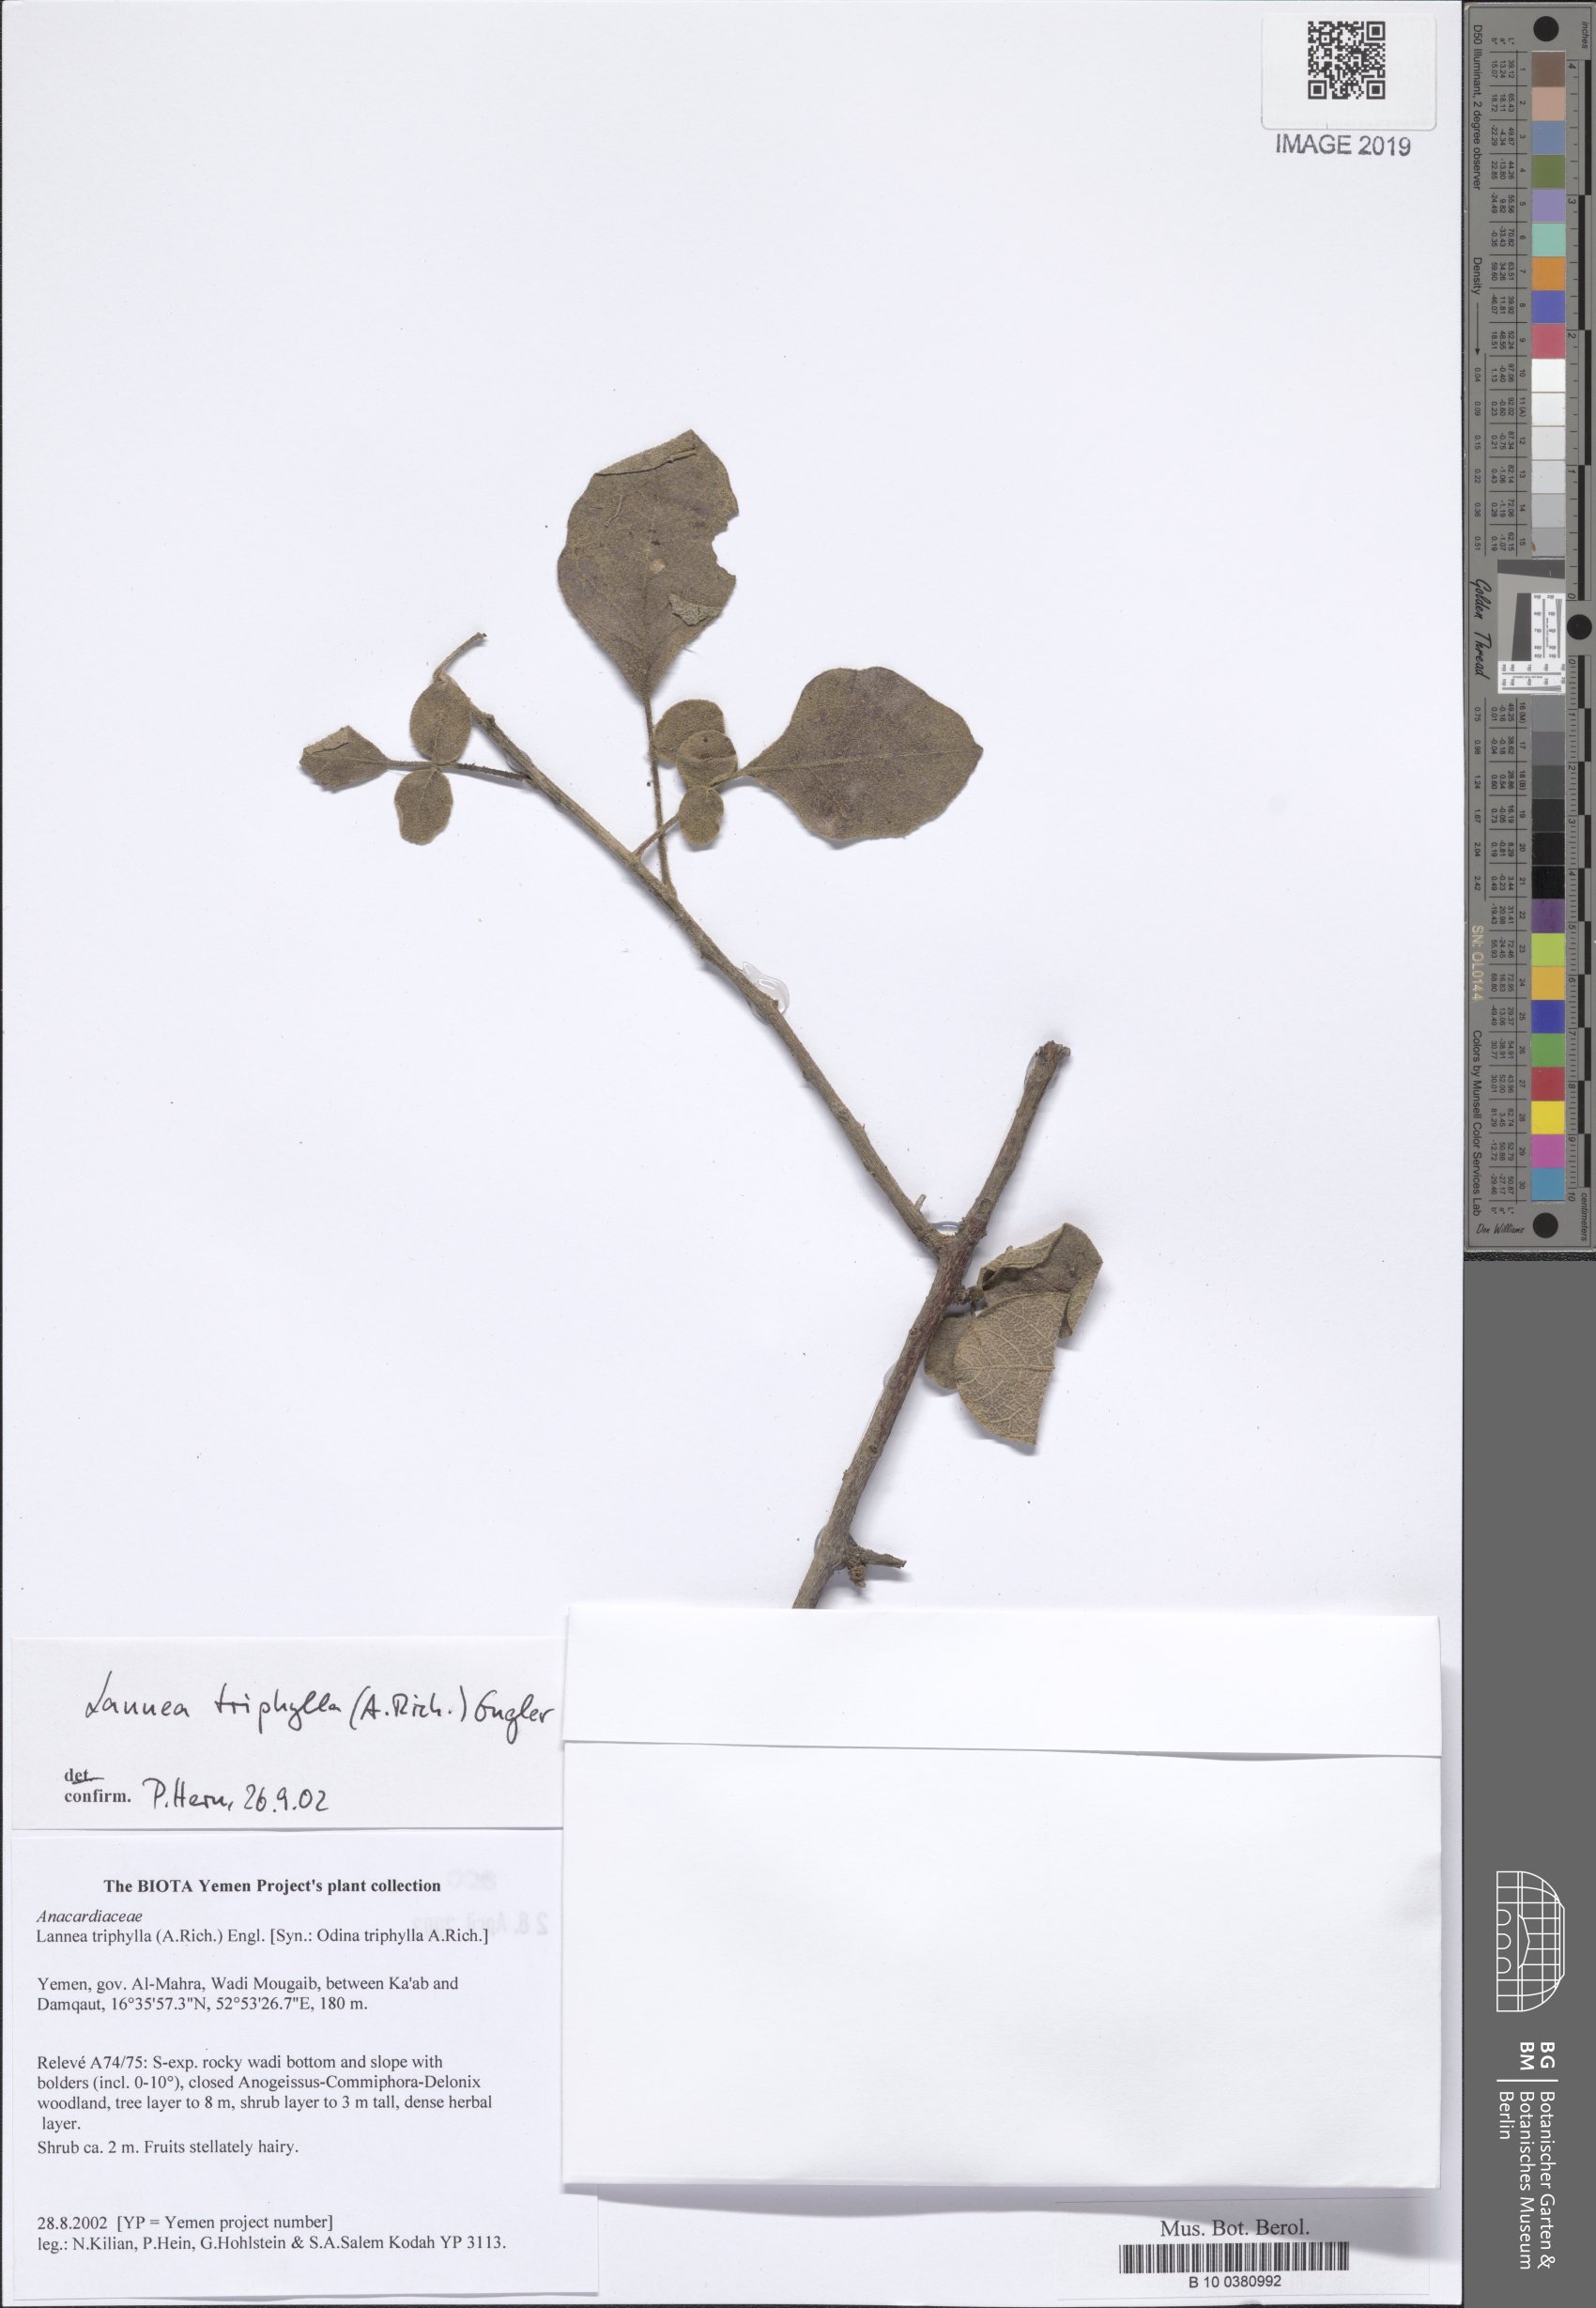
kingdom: Plantae
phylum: Tracheophyta
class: Magnoliopsida
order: Sapindales
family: Anacardiaceae
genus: Lannea
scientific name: Lannea triphylla
